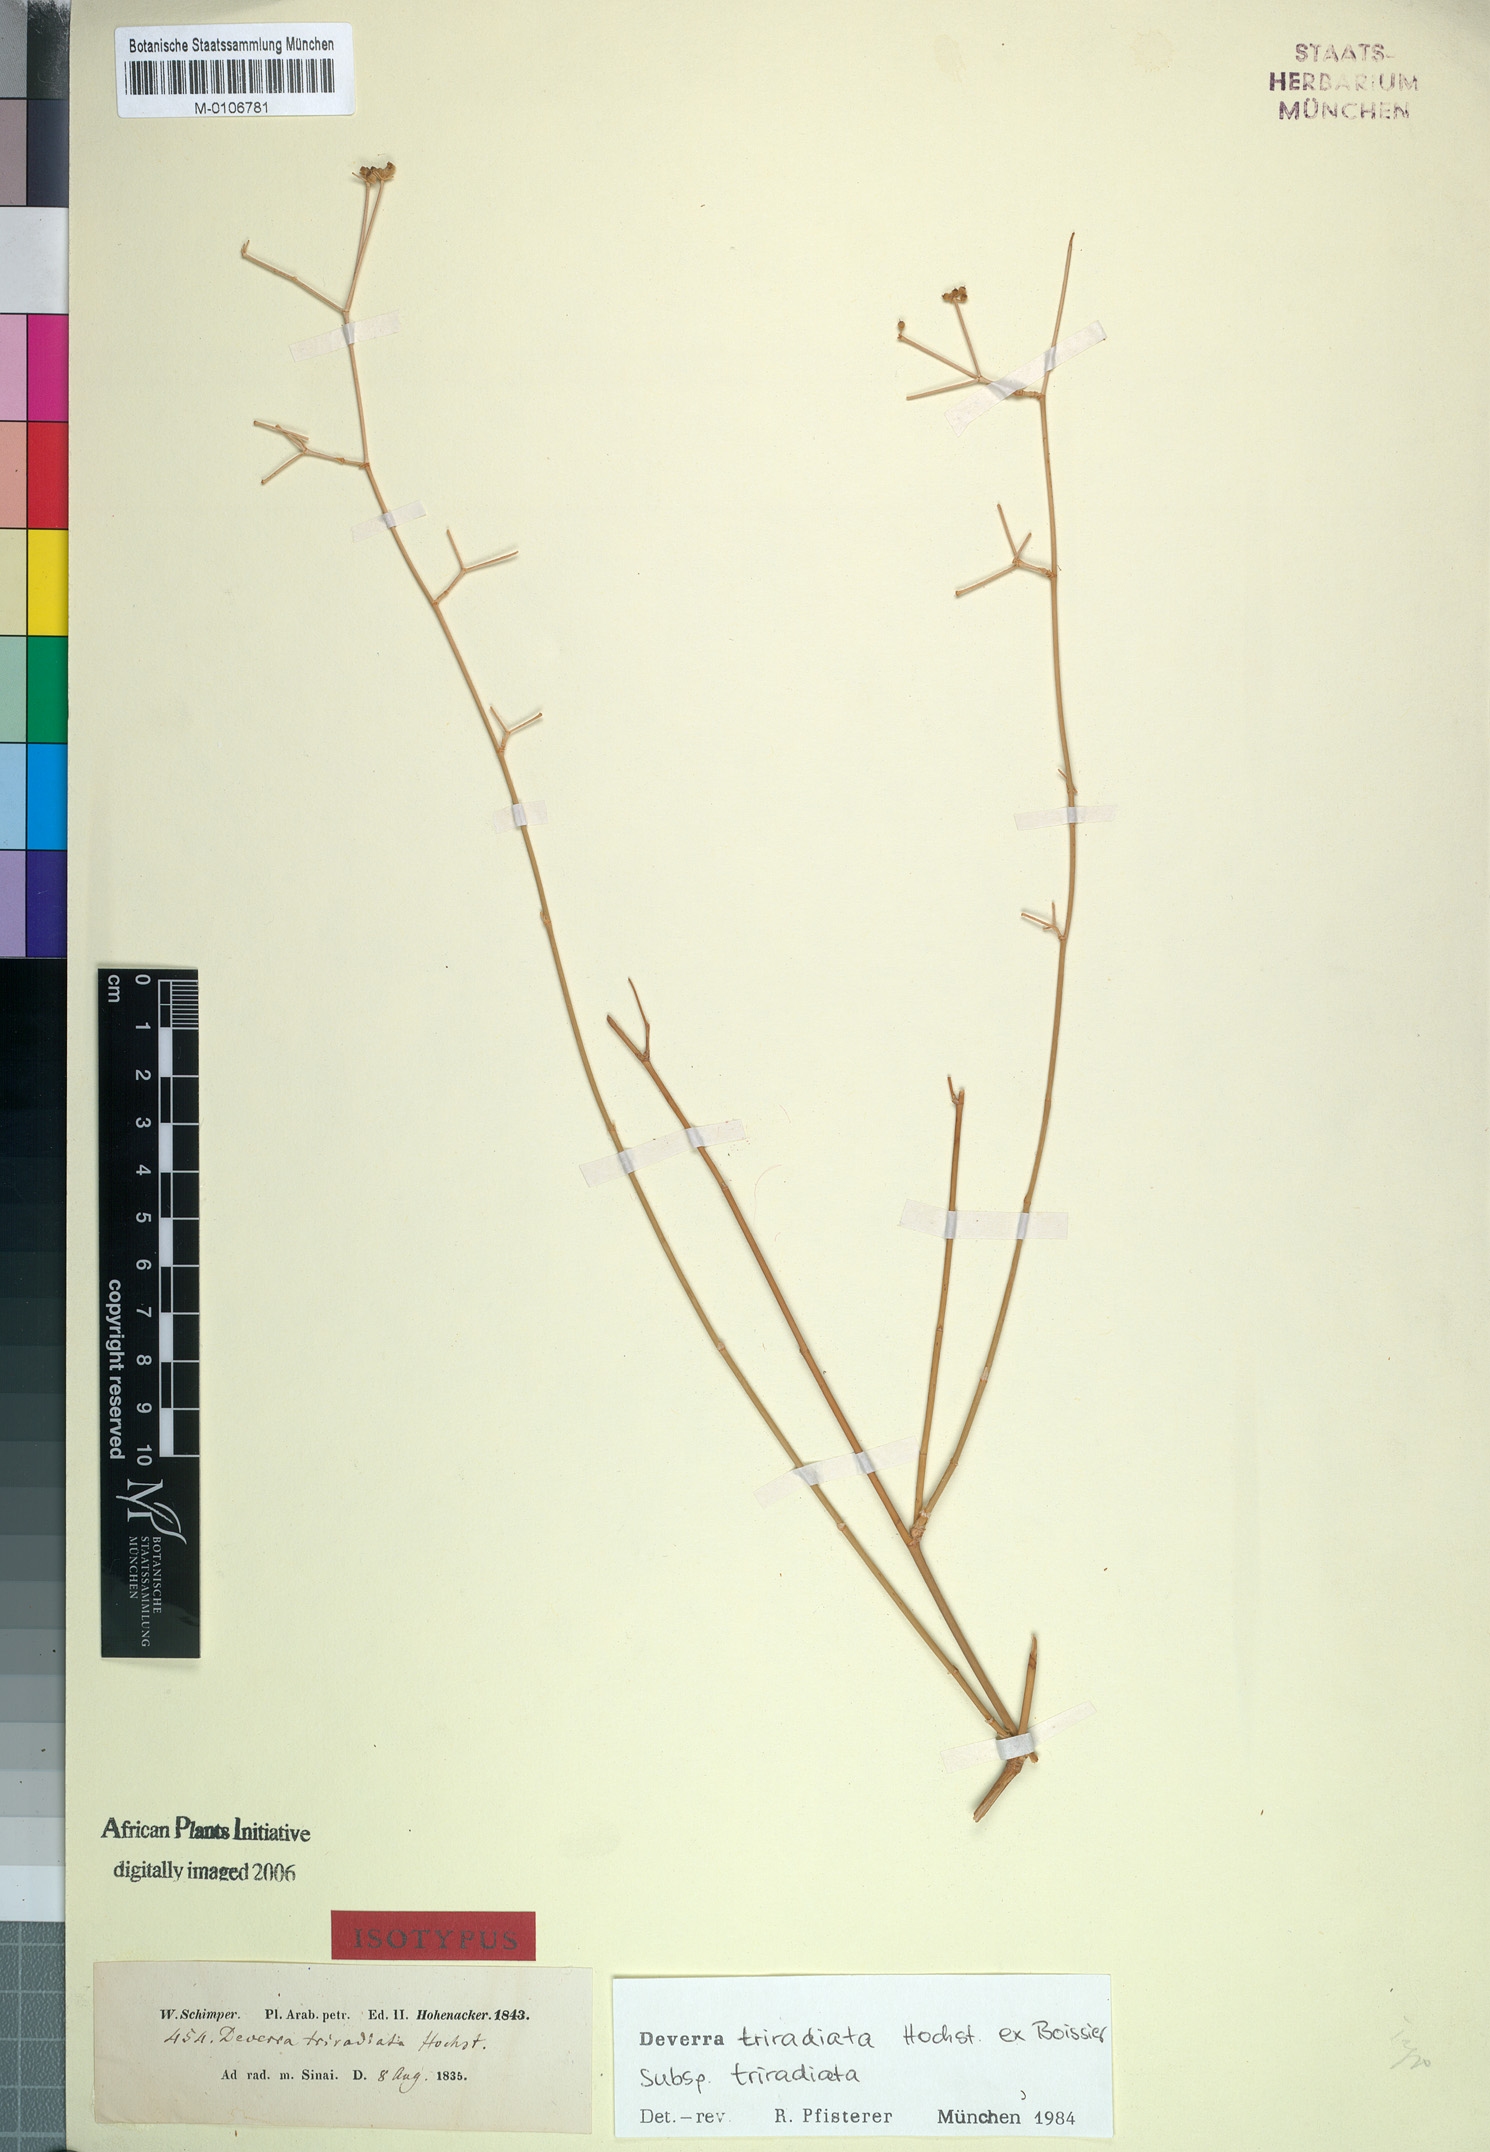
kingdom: Plantae
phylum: Tracheophyta
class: Magnoliopsida
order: Apiales
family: Apiaceae
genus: Deverra
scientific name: Deverra triradiata
